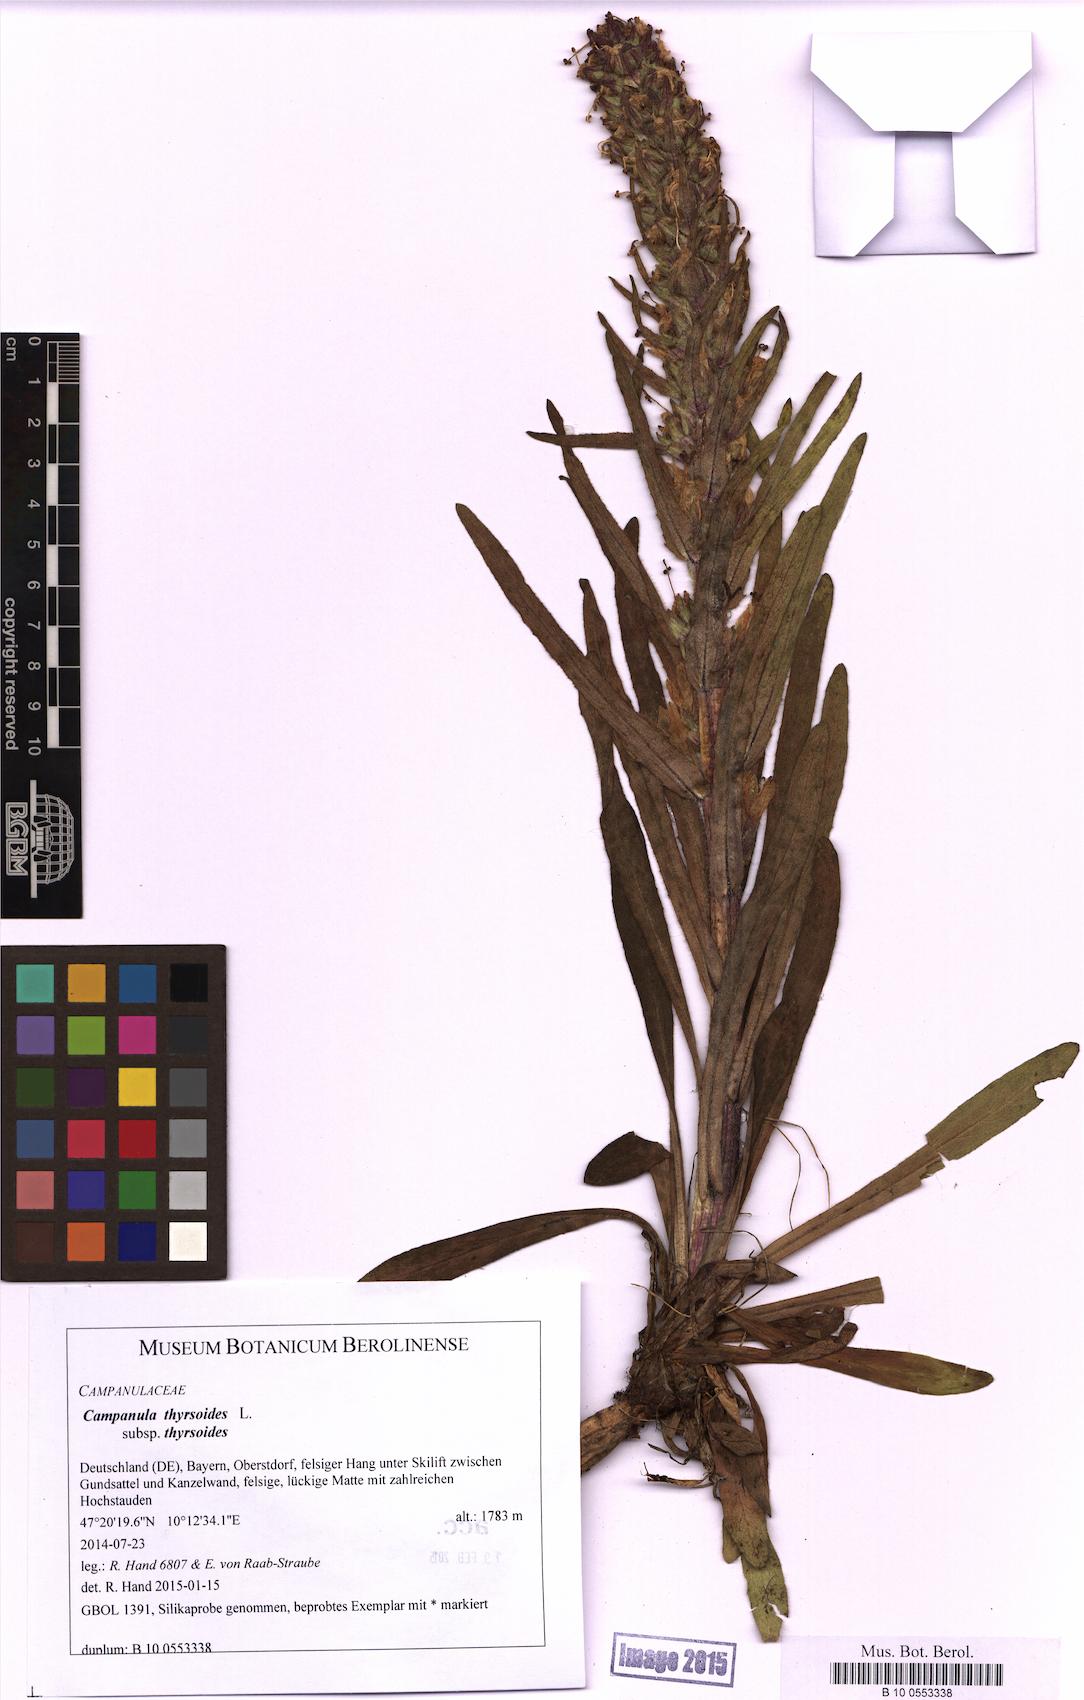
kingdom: Plantae
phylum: Tracheophyta
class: Magnoliopsida
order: Asterales
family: Campanulaceae
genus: Campanula
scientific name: Campanula thyrsoides
